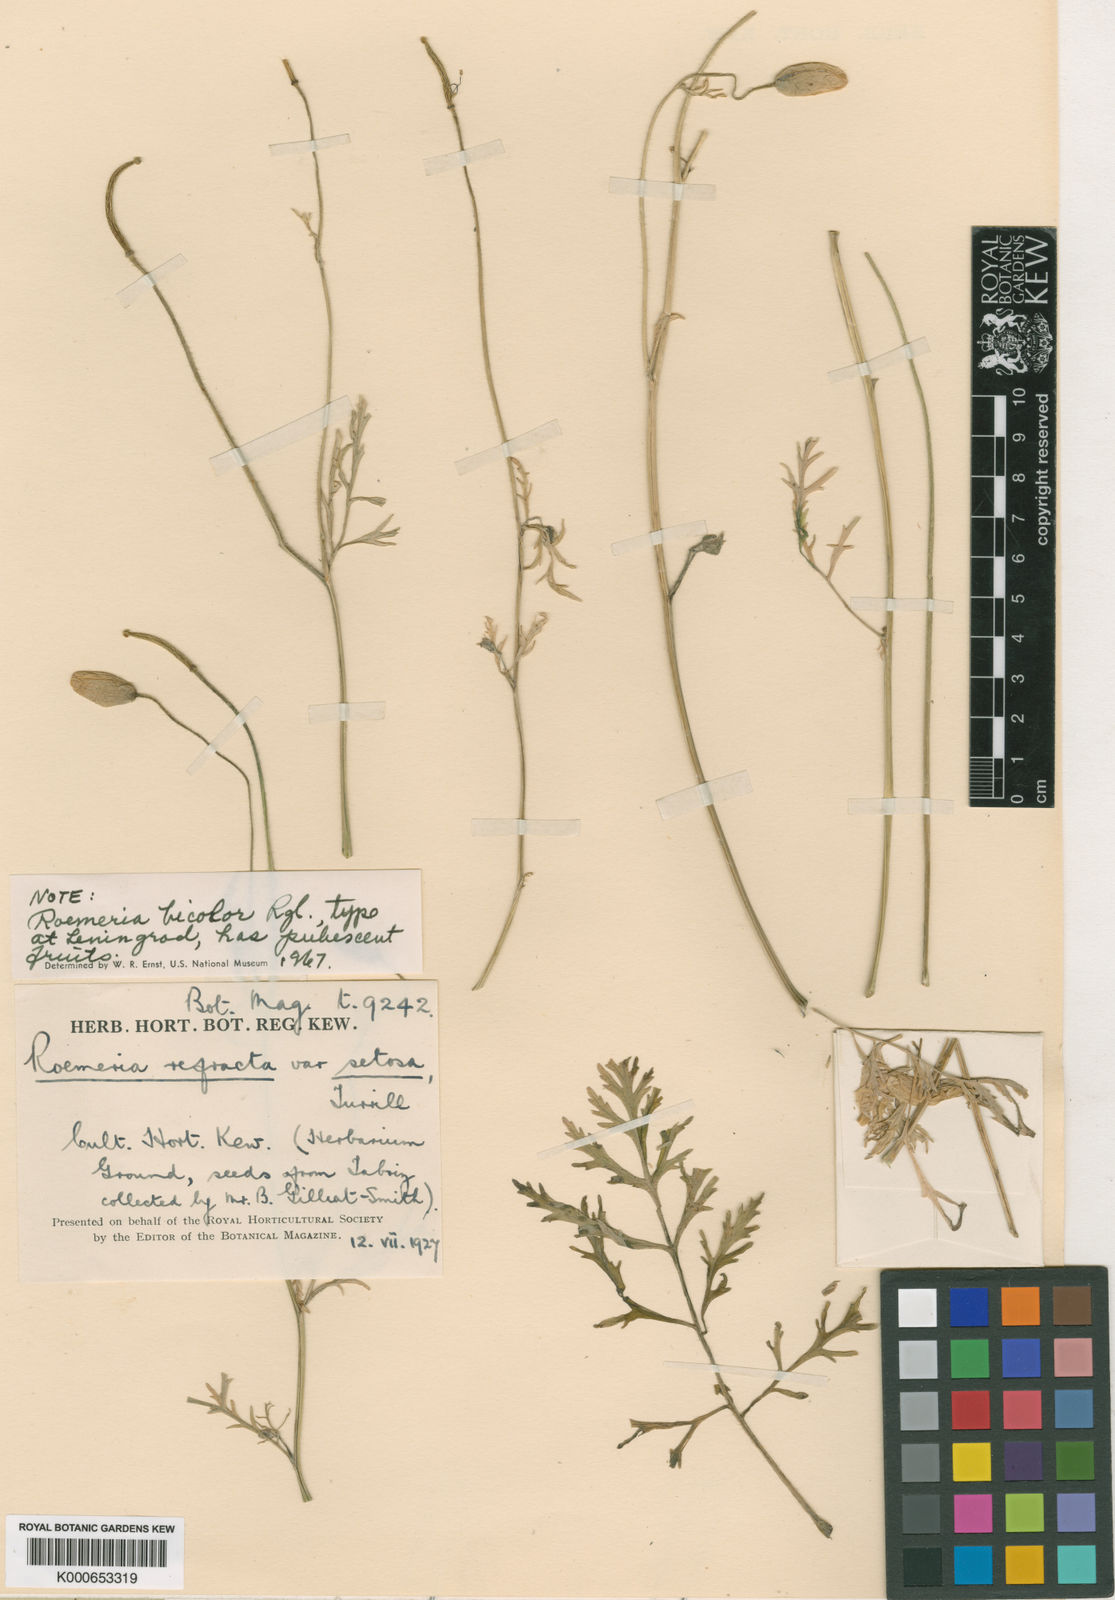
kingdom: Plantae
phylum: Tracheophyta
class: Magnoliopsida
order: Ranunculales
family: Papaveraceae
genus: Roemeria
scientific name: Roemeria refracta
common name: Spotted asian poppy
